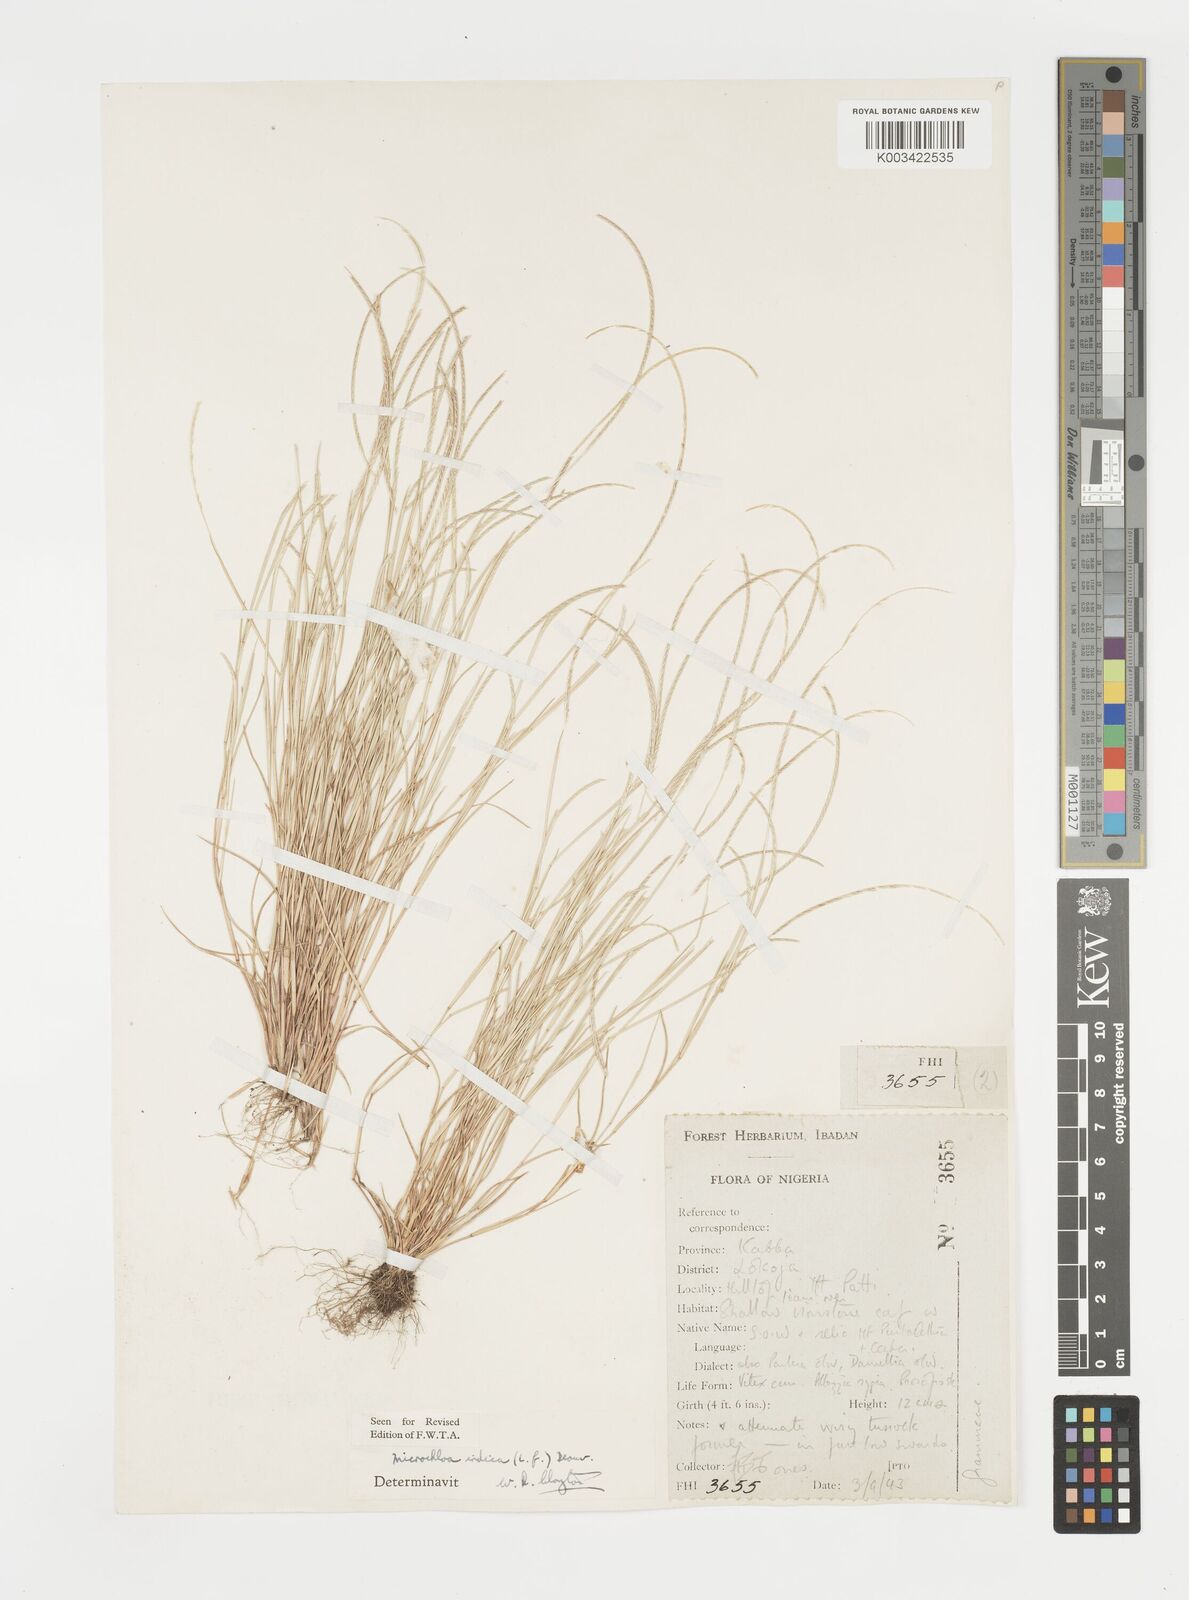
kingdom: Plantae
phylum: Tracheophyta
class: Liliopsida
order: Poales
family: Poaceae
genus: Microchloa
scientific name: Microchloa indica
